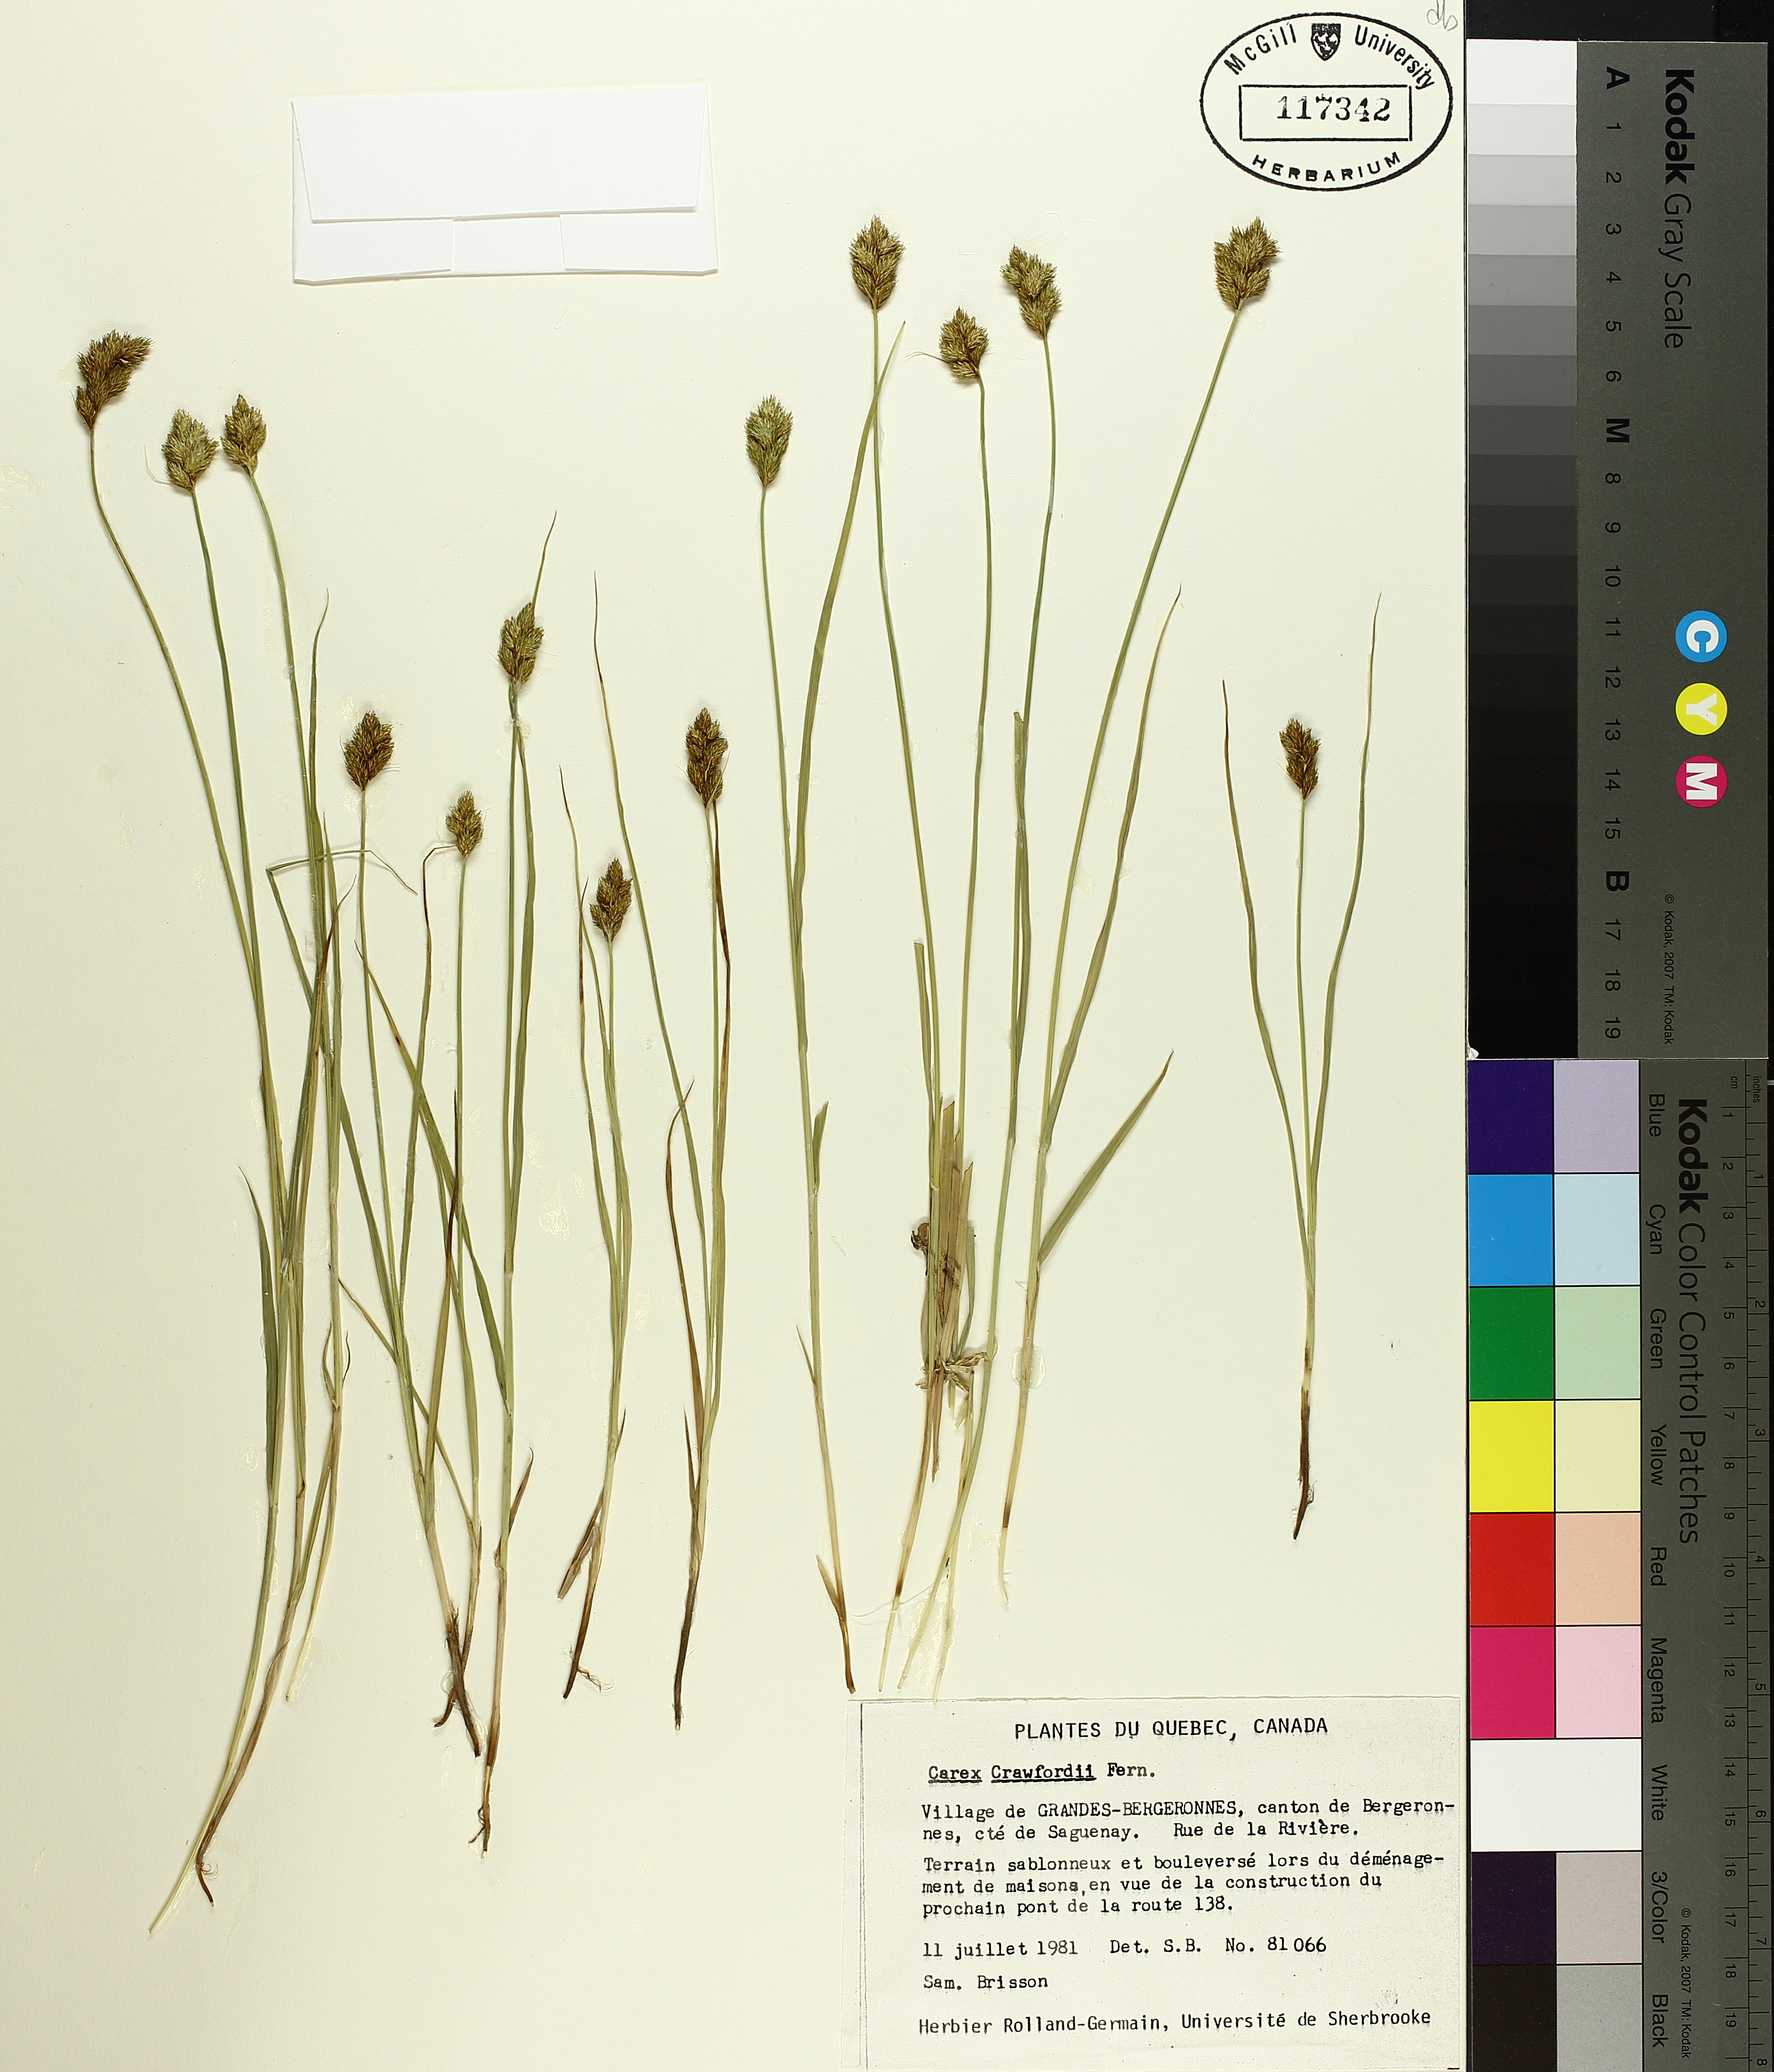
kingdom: Plantae
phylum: Tracheophyta
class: Liliopsida
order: Poales
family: Cyperaceae
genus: Carex
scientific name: Carex crawfordii
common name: Crawford's sedge
